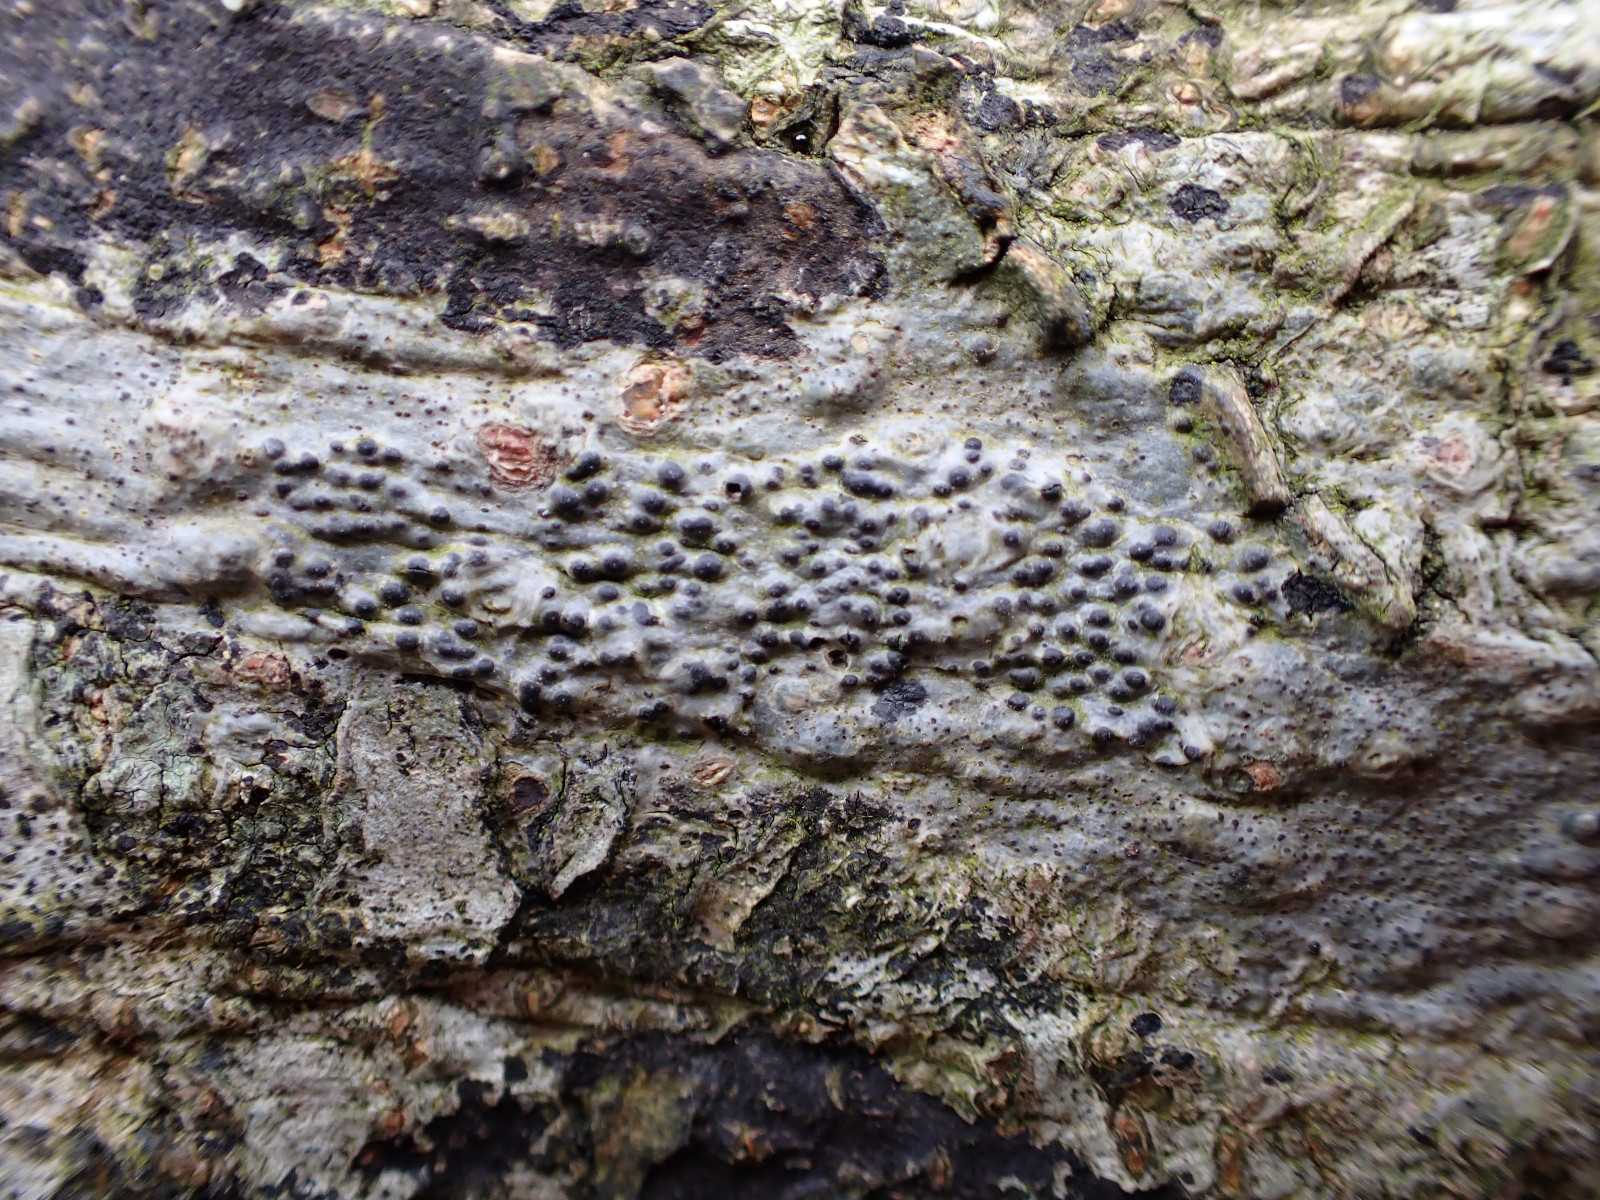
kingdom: Fungi
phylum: Ascomycota
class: Eurotiomycetes
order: Pyrenulales
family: Pyrenulaceae
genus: Pyrenula
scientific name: Pyrenula nitida
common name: glinsende kernelav
